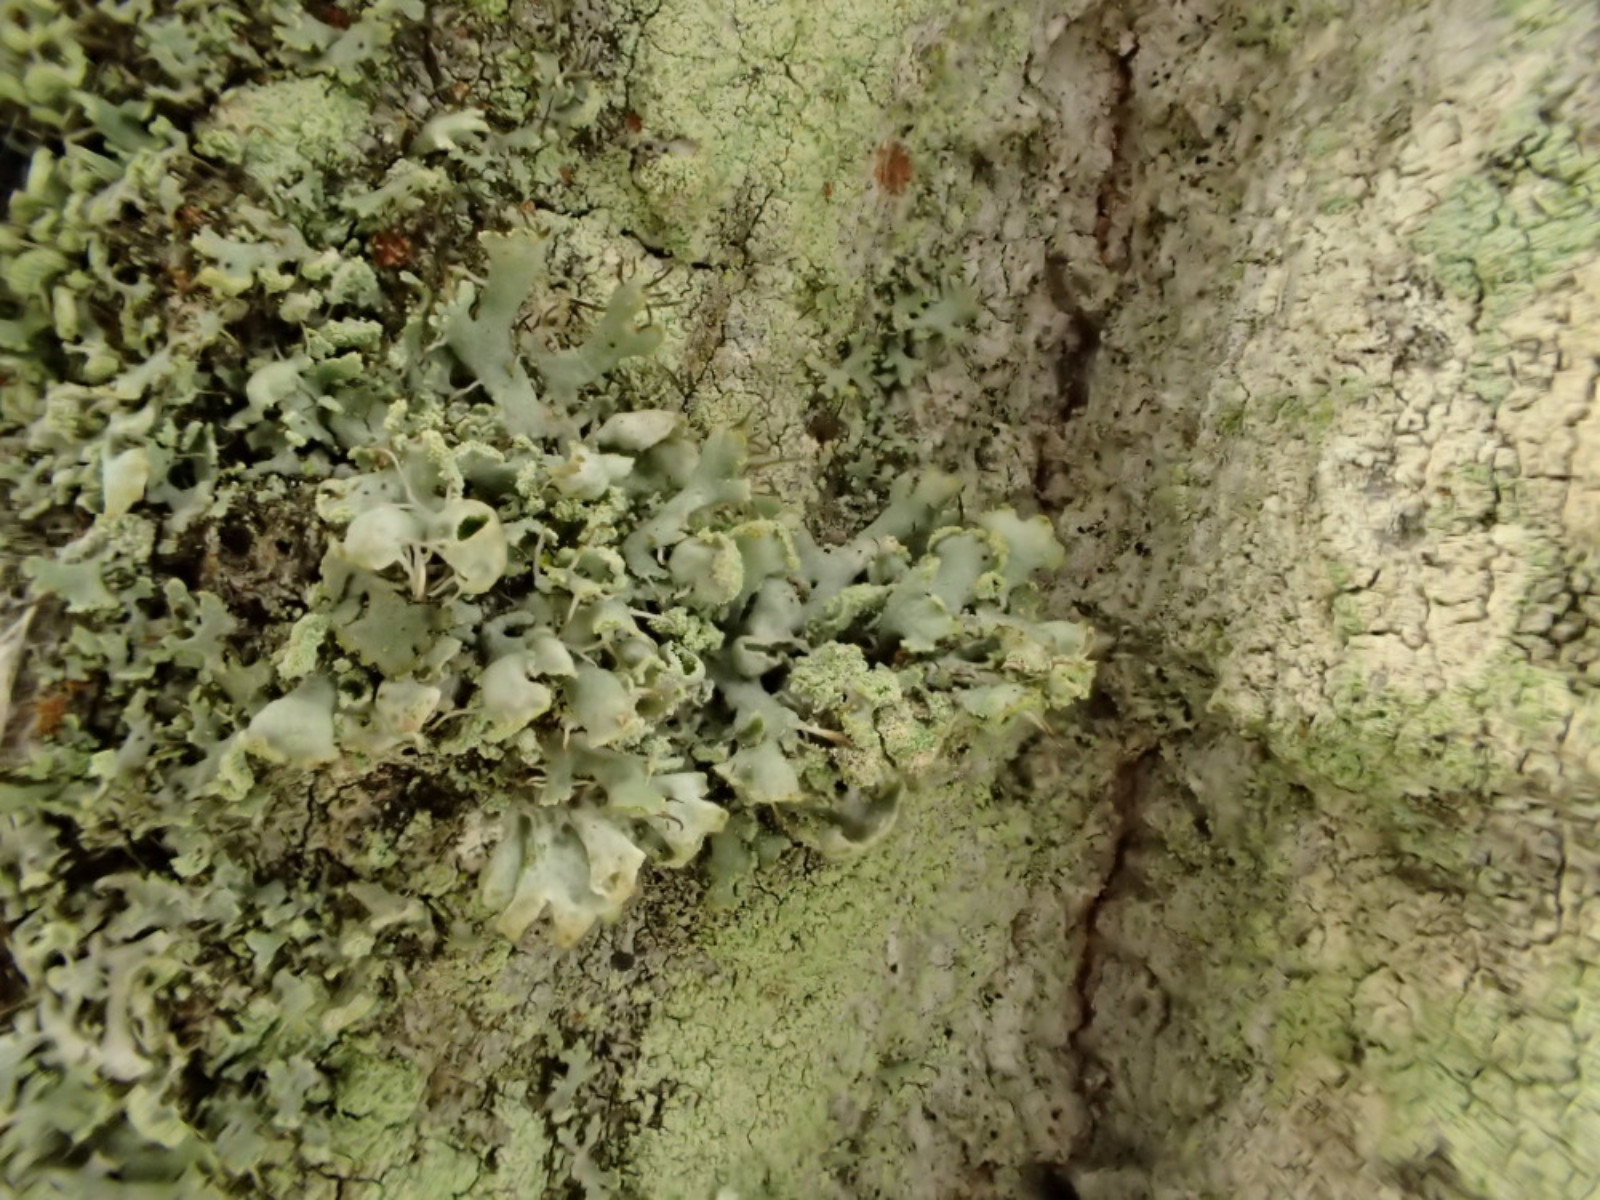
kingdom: Fungi
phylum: Ascomycota
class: Lecanoromycetes
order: Caliciales
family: Physciaceae
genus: Physcia
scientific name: Physcia adscendens
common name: hætte-rosetlav
